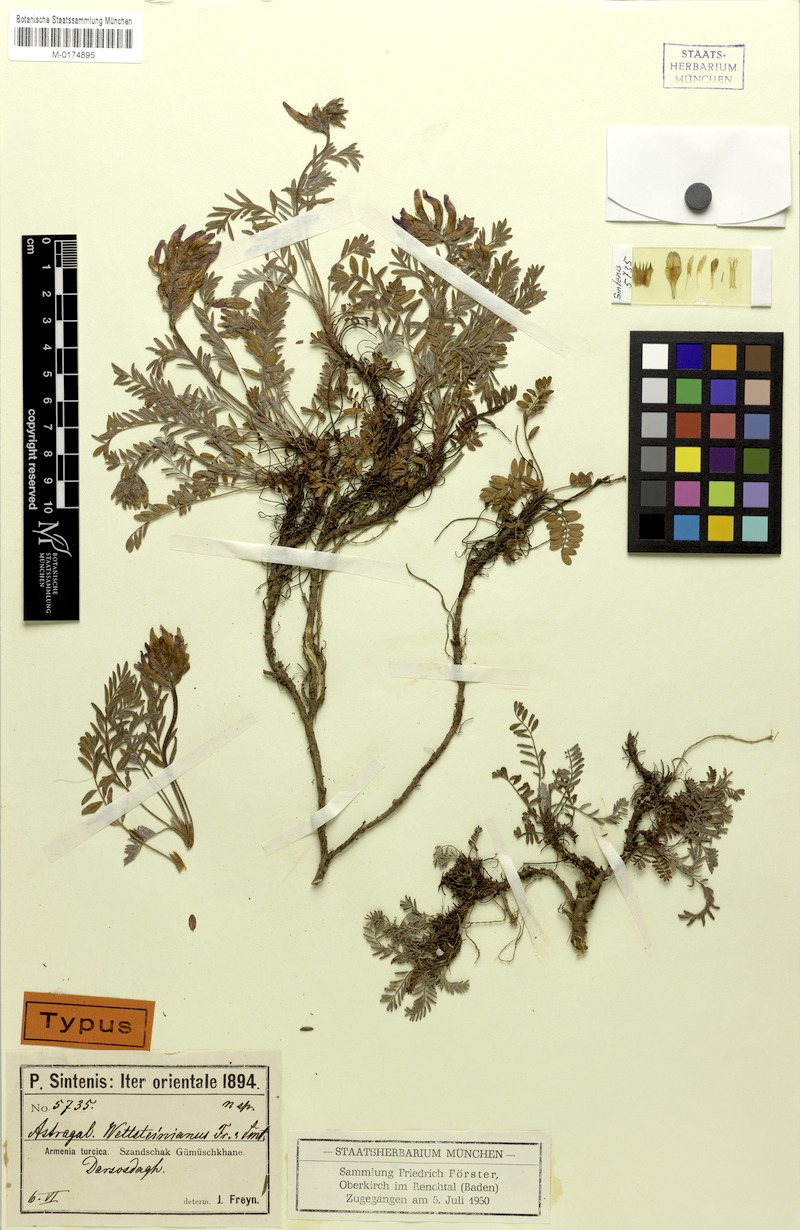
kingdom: Plantae
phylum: Tracheophyta
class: Magnoliopsida
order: Fabales
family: Fabaceae
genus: Astragalus
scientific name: Astragalus amoenus
